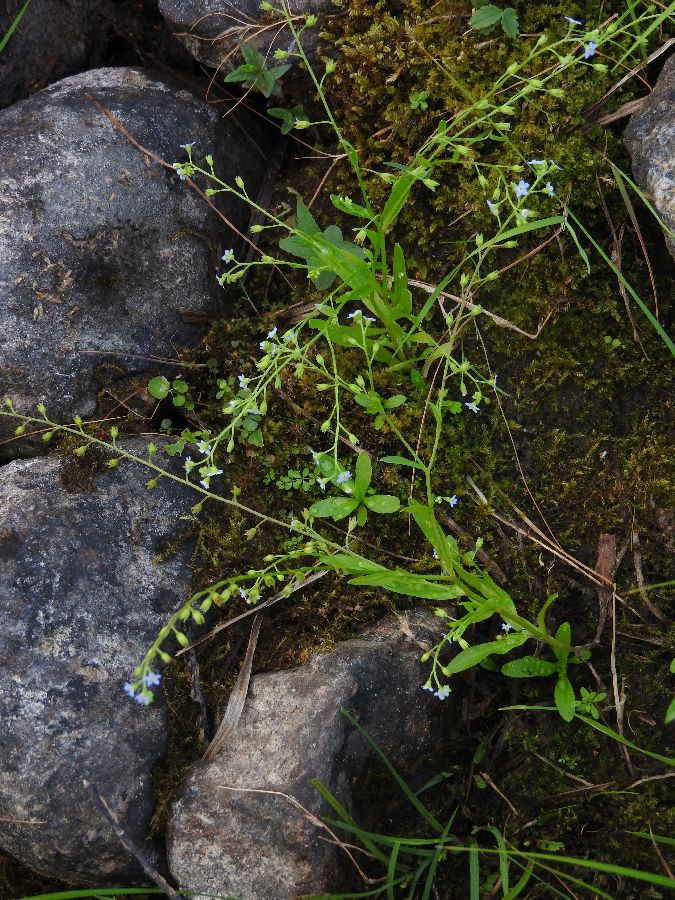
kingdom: Plantae
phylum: Tracheophyta
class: Magnoliopsida
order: Boraginales
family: Boraginaceae
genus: Myosotis
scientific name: Myosotis laxa
